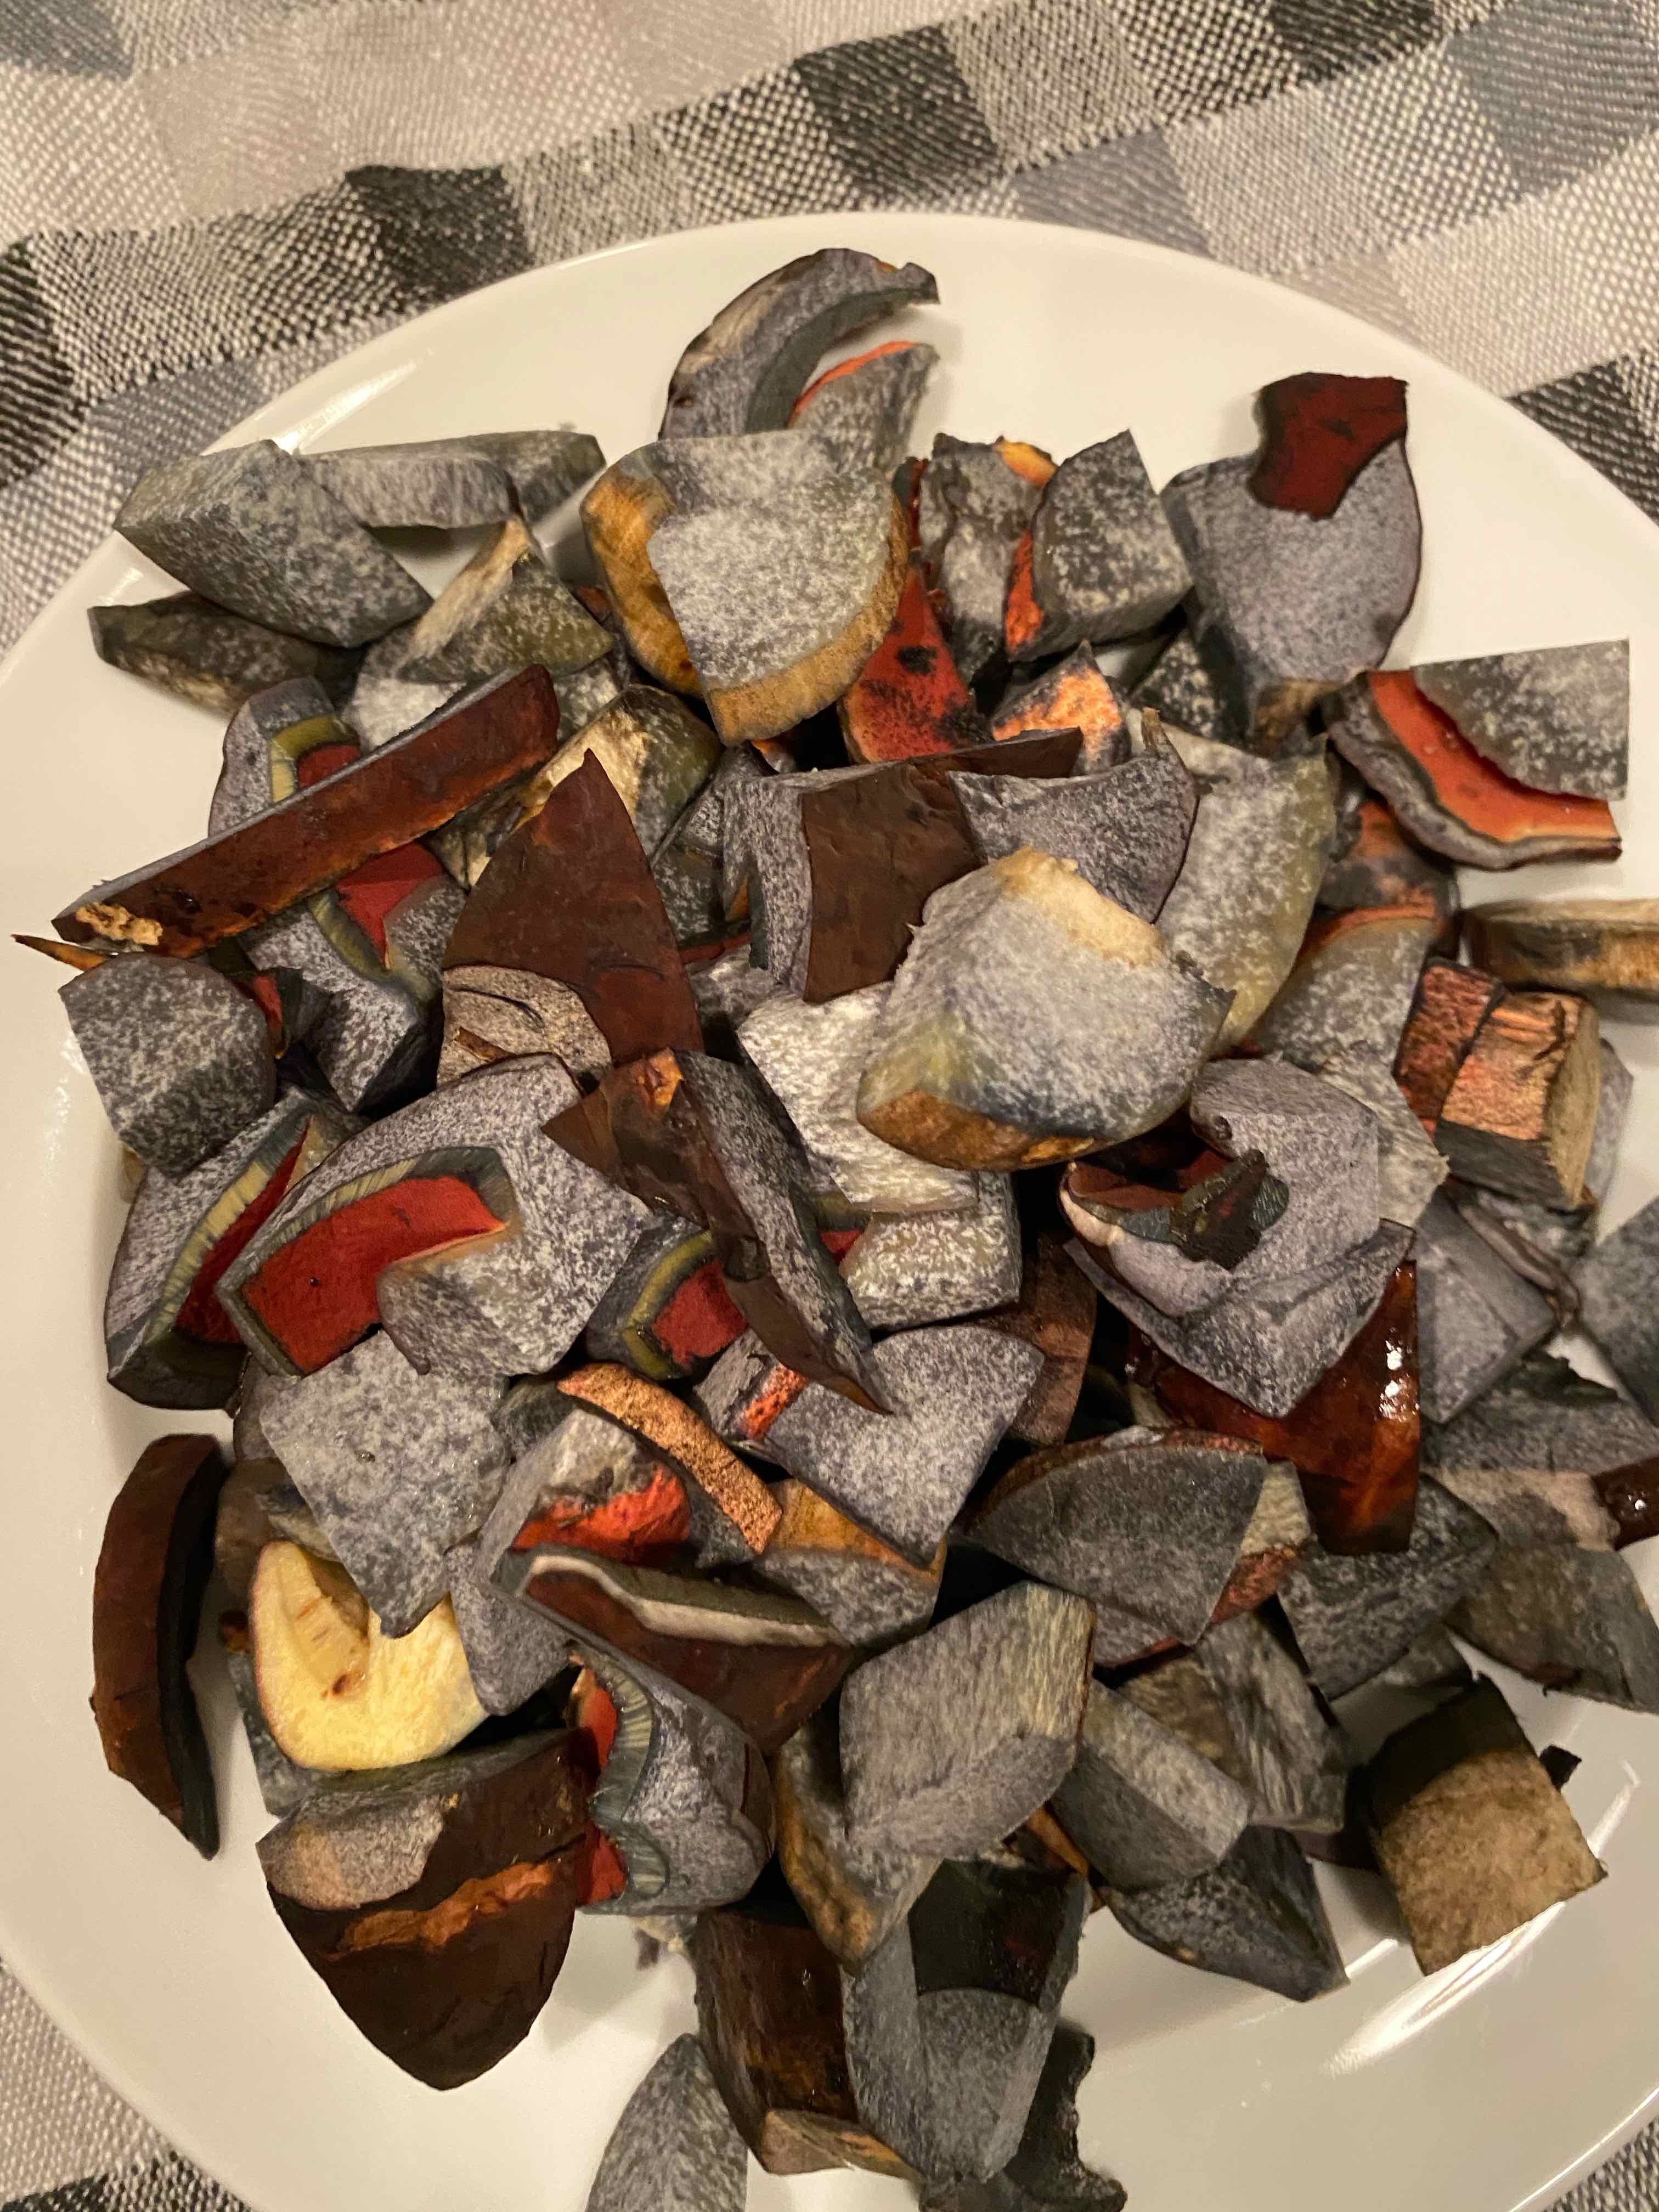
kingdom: Fungi
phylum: Basidiomycota
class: Agaricomycetes
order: Boletales
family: Boletaceae
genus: Neoboletus
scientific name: Neoboletus erythropus
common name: punktstokket indigorørhat
